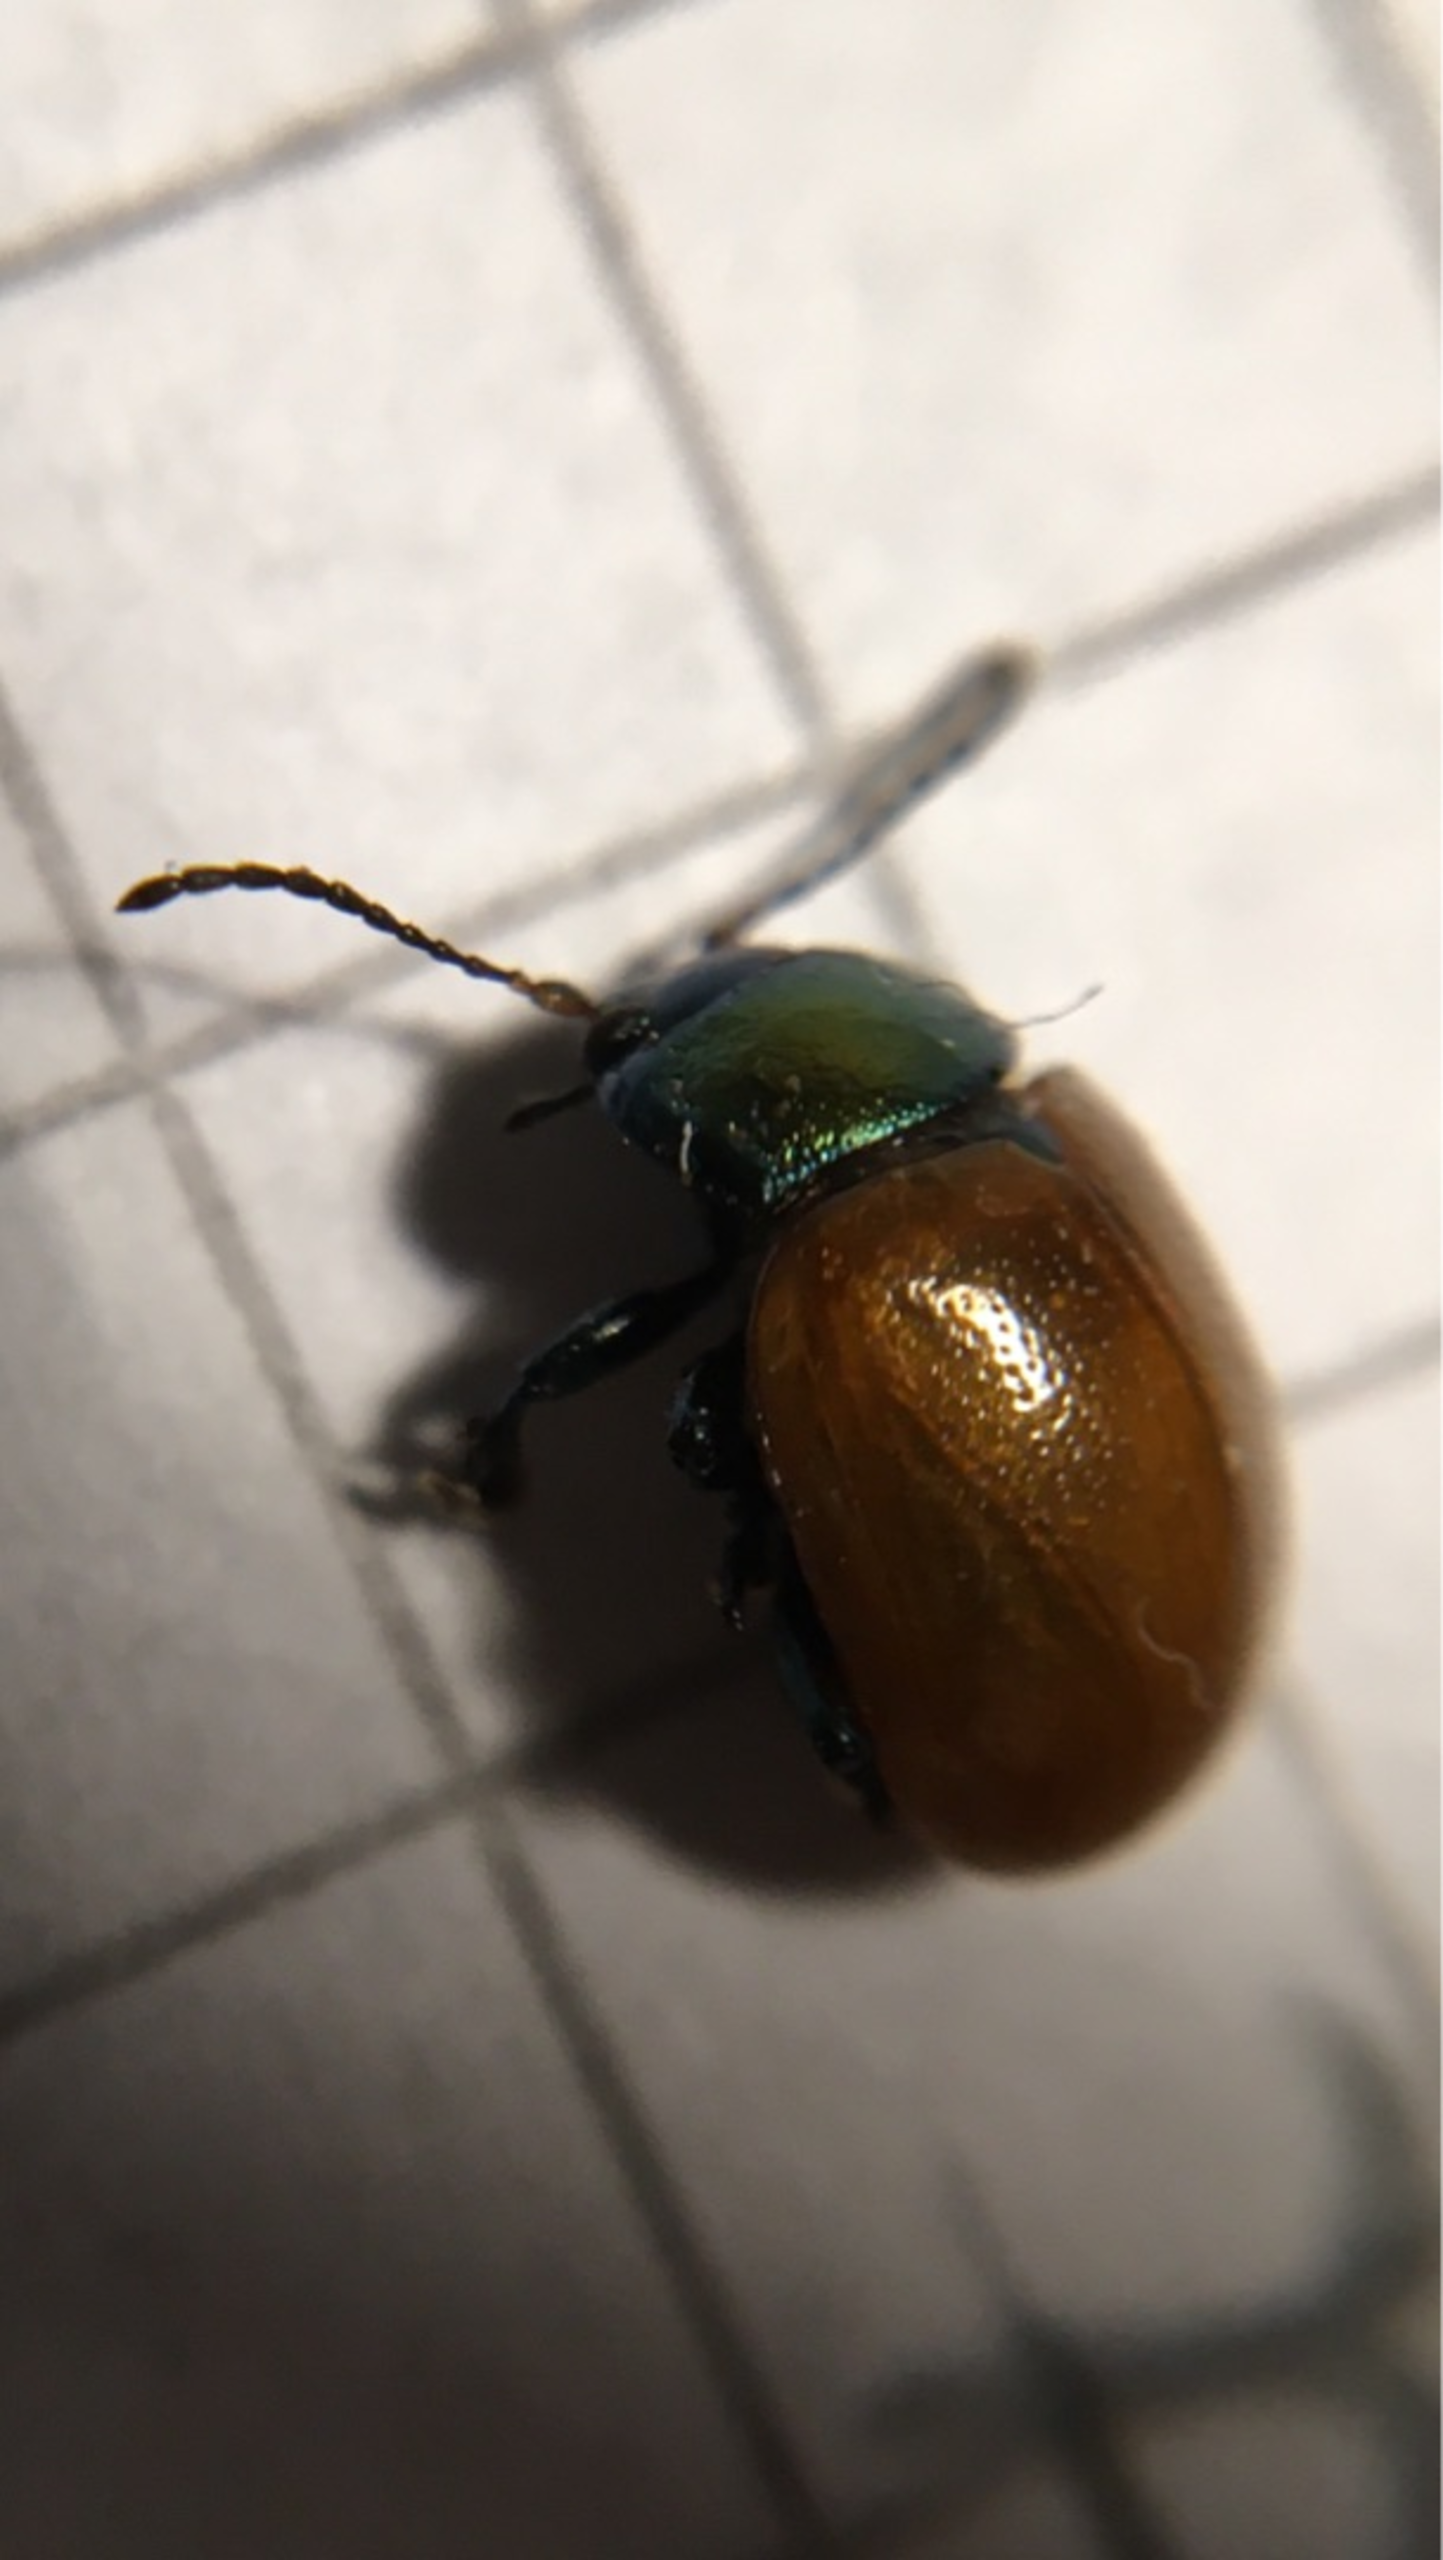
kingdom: Animalia
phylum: Arthropoda
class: Insecta
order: Coleoptera
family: Chrysomelidae
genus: Chrysomela
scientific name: Chrysomela polita
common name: Forskelligfarvet guldbille
